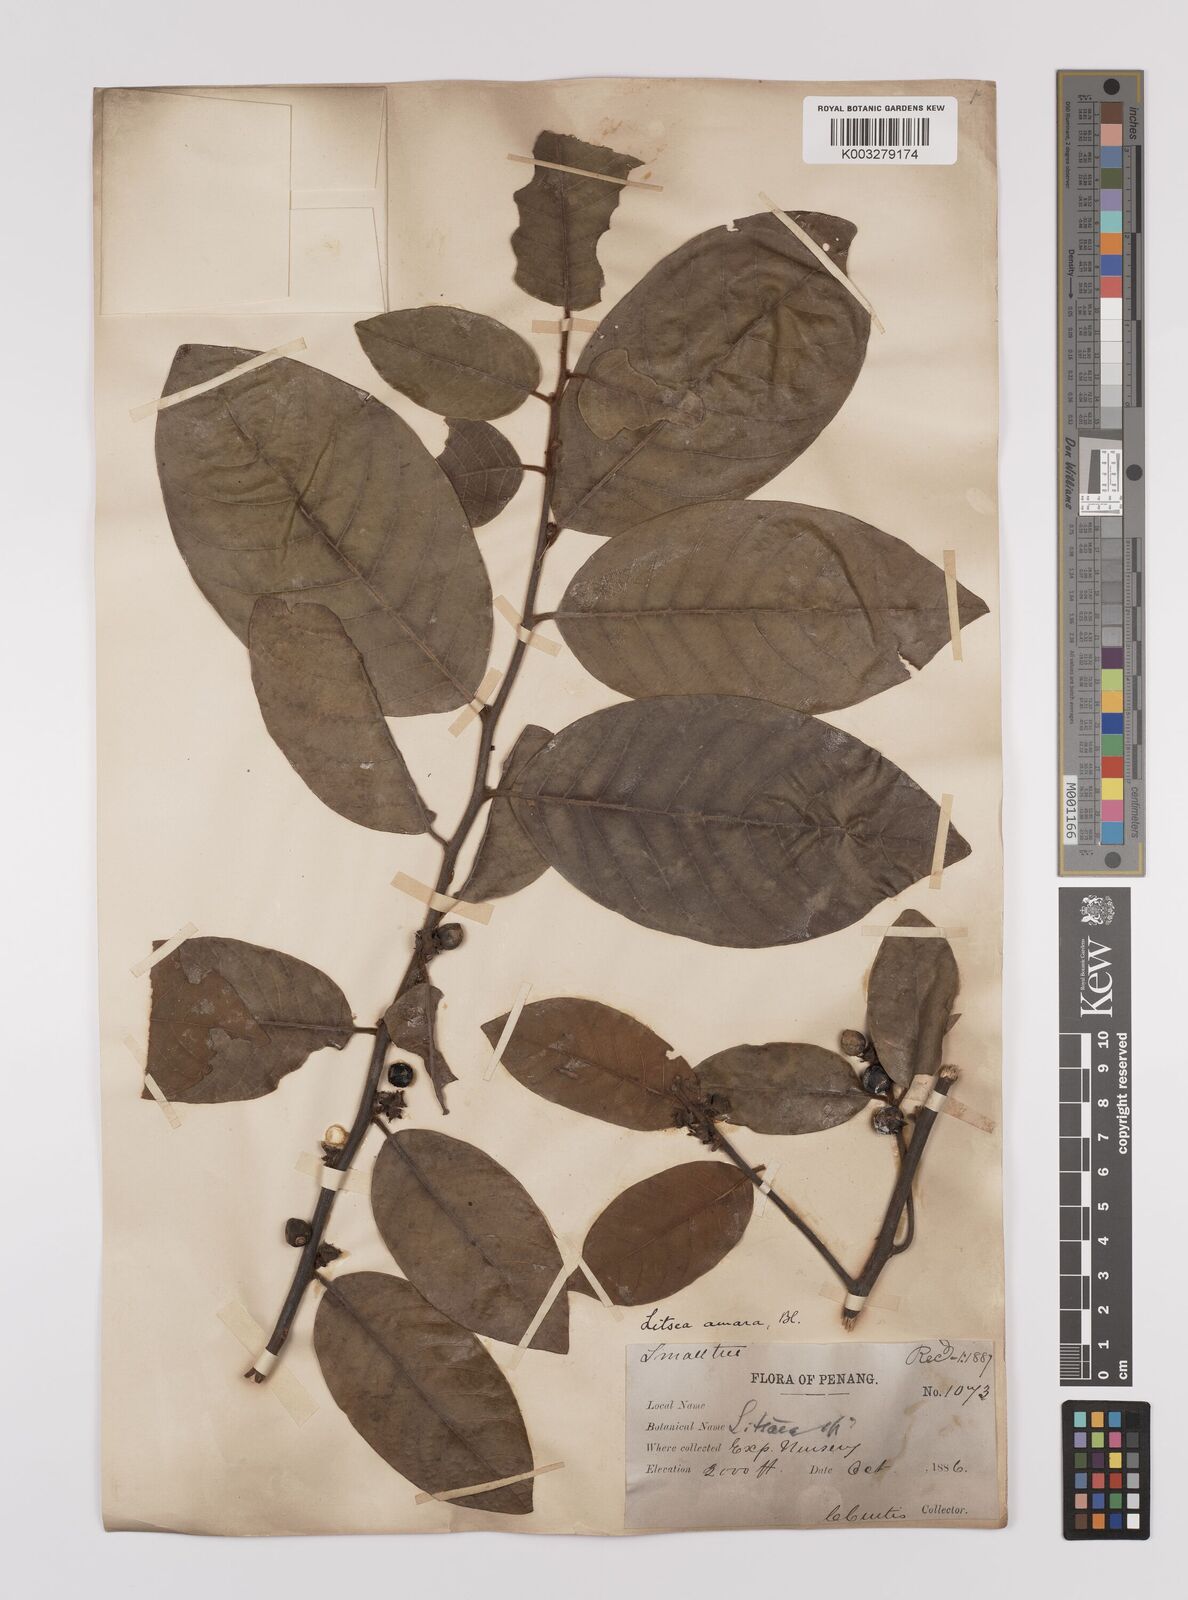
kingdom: Plantae
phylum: Tracheophyta
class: Magnoliopsida
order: Laurales
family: Lauraceae
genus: Litsea
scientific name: Litsea umbellata
